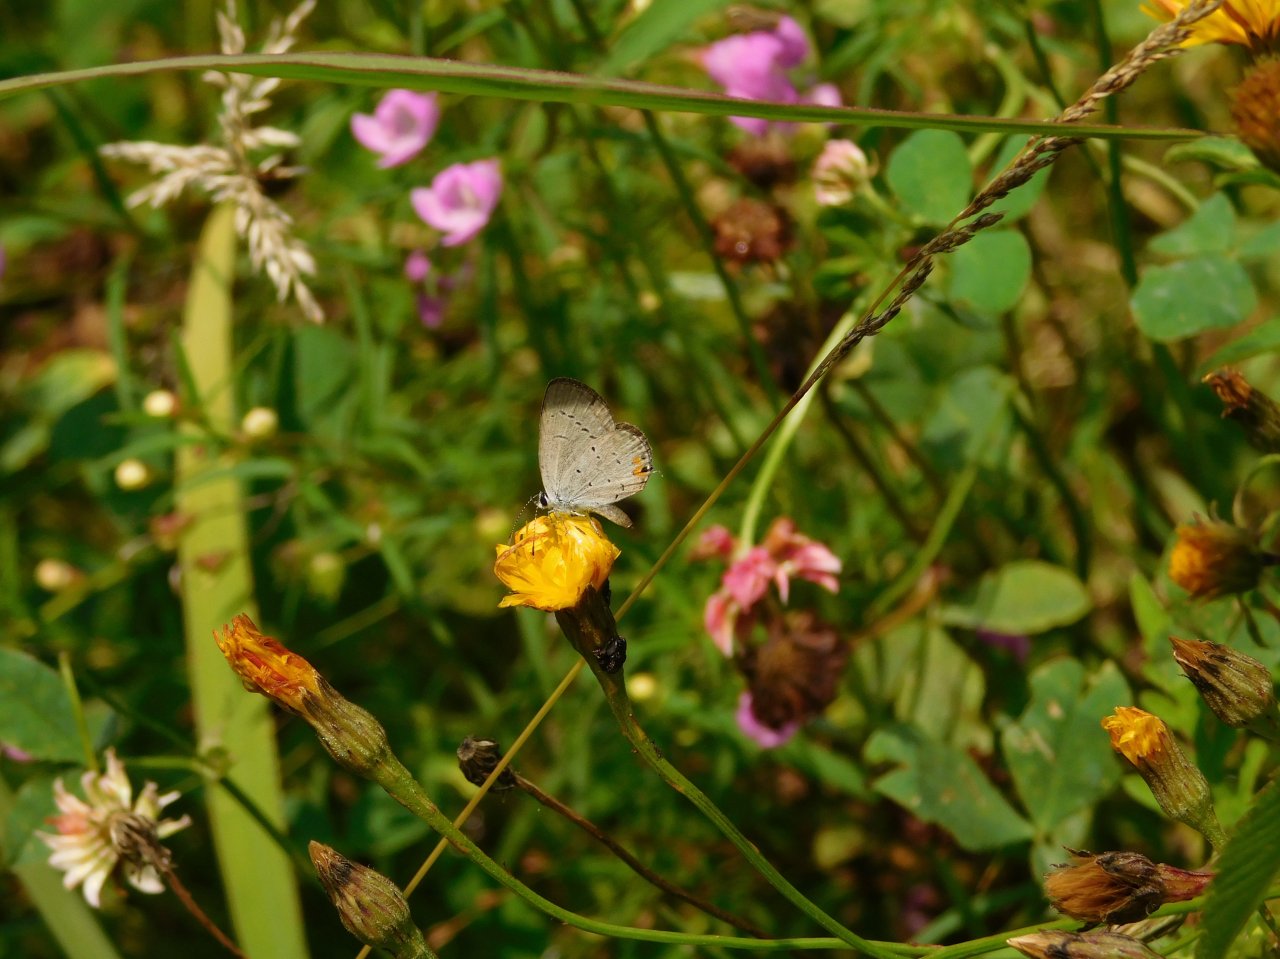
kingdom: Animalia
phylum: Arthropoda
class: Insecta
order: Lepidoptera
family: Lycaenidae
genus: Elkalyce
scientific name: Elkalyce comyntas
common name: Eastern Tailed-Blue
